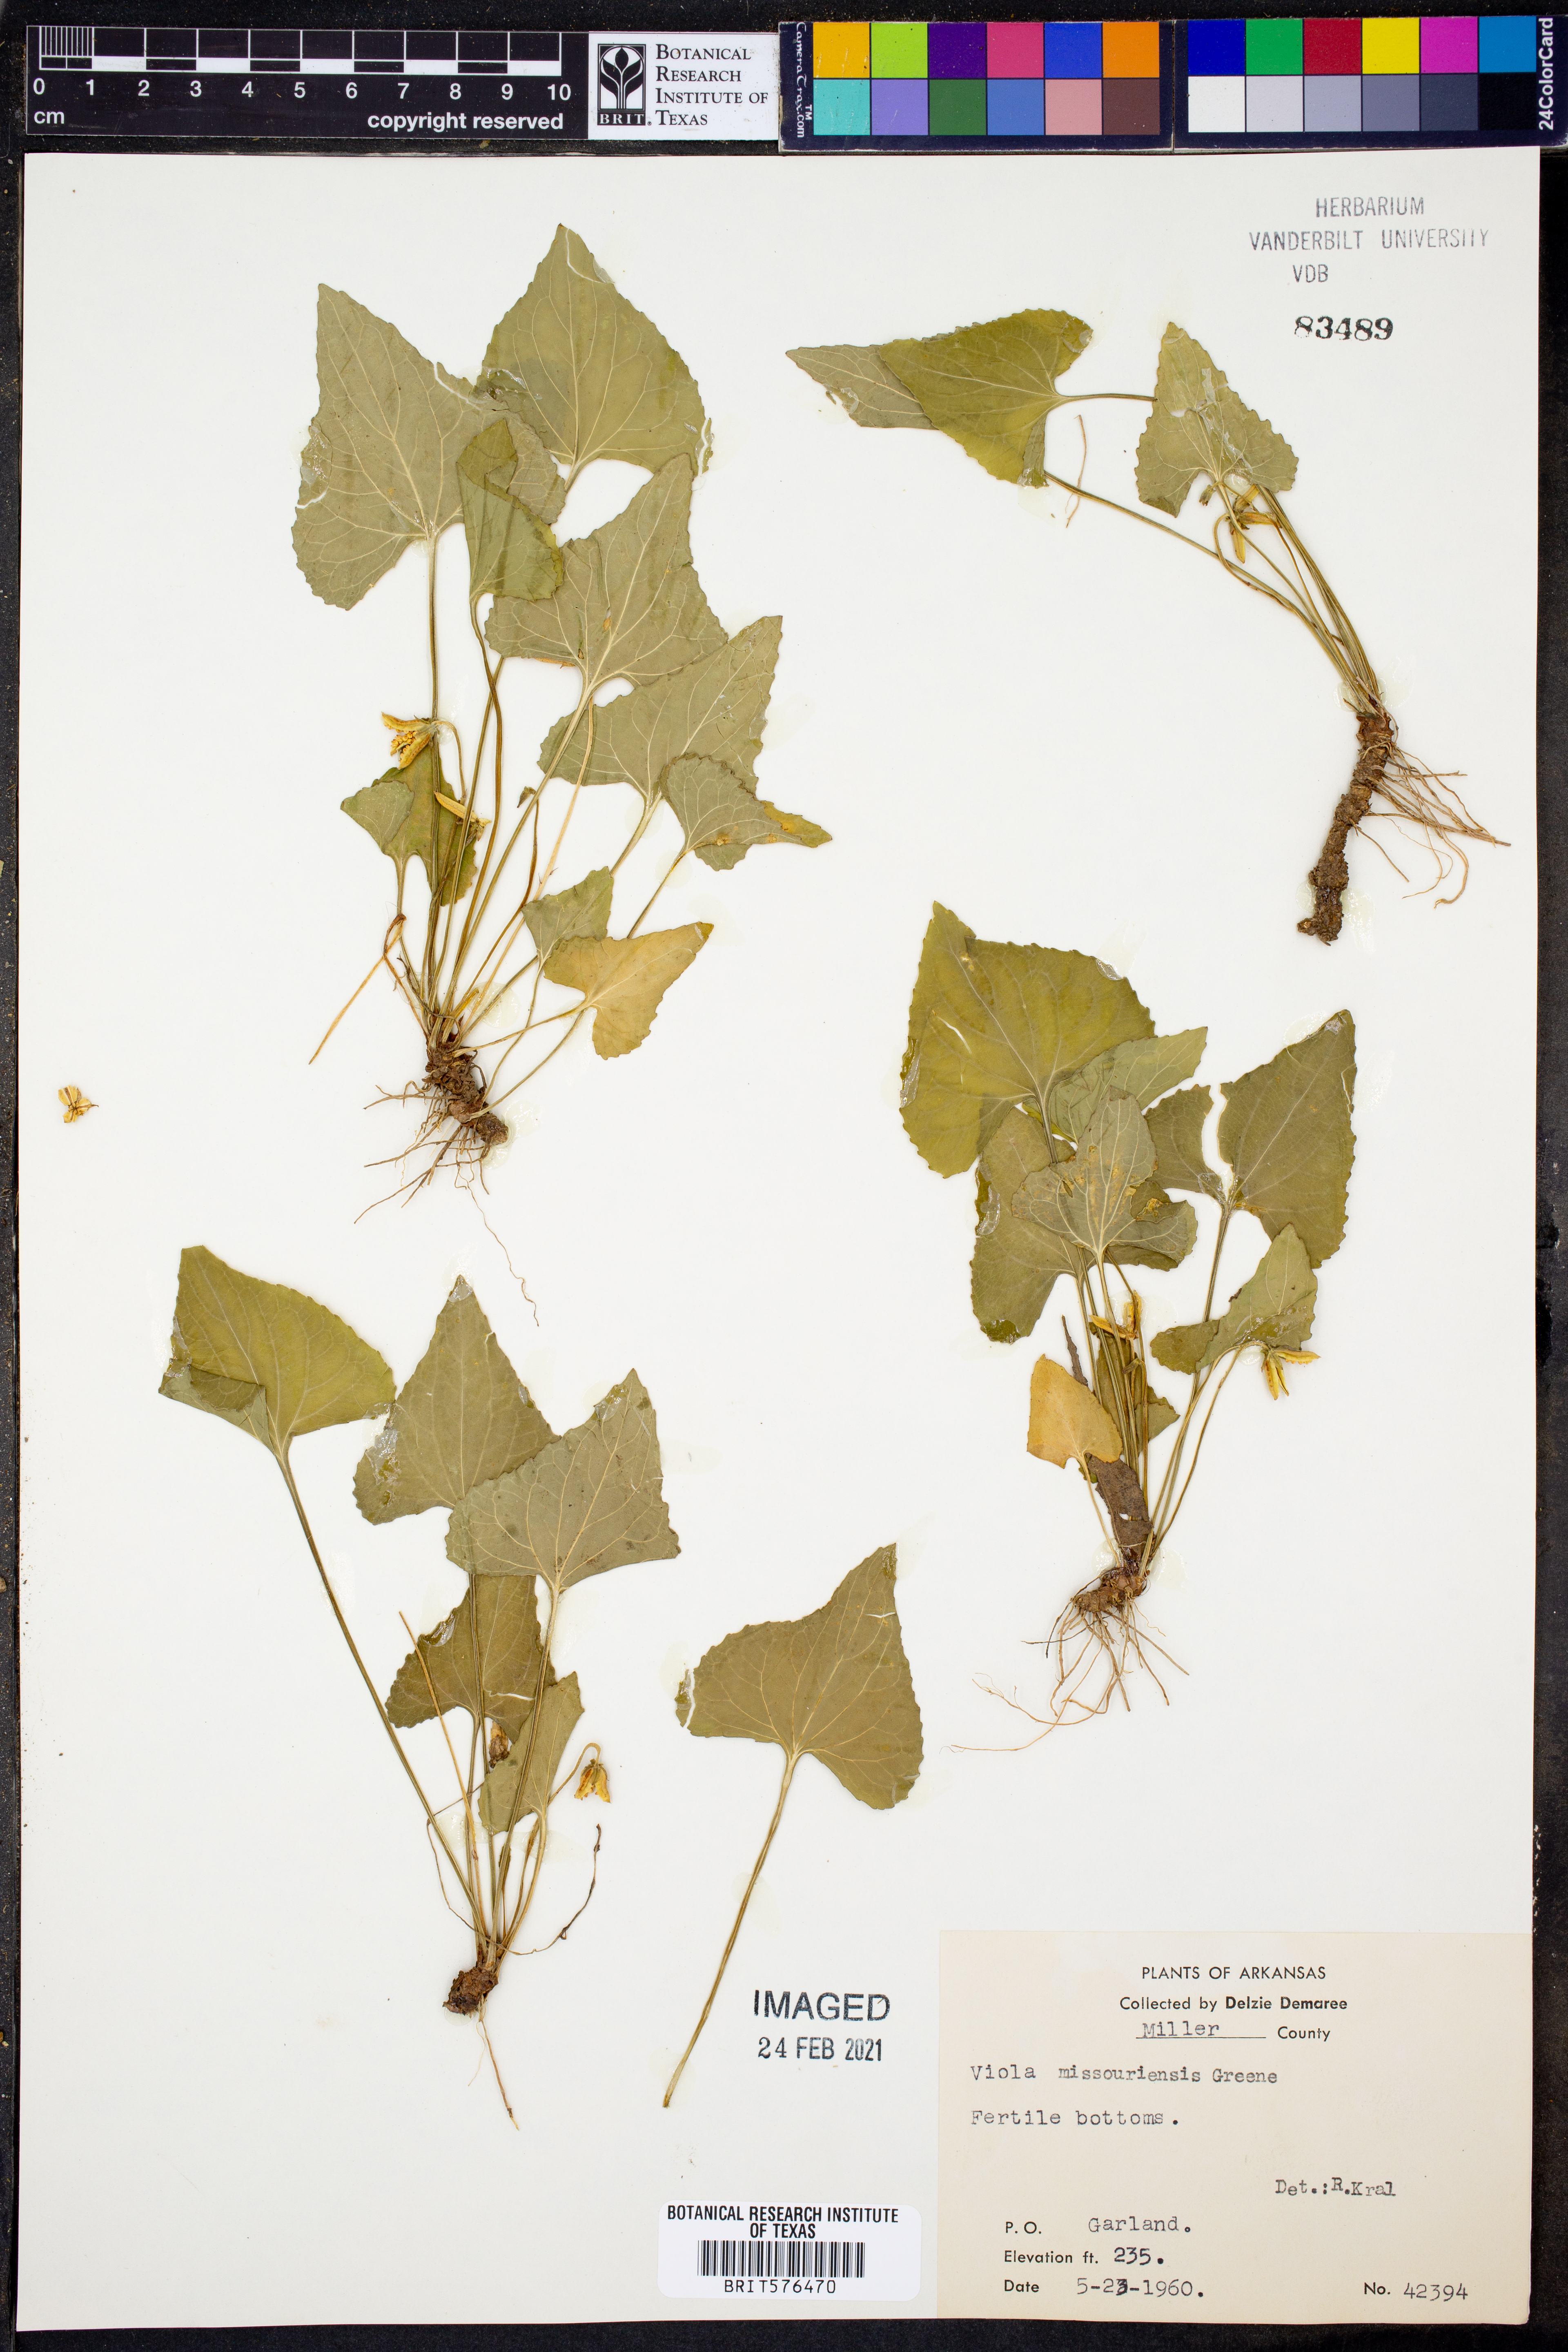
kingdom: Plantae
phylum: Tracheophyta
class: Magnoliopsida
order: Malpighiales
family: Violaceae
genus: Viola
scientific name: Viola missouriensis
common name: Missouri violet
